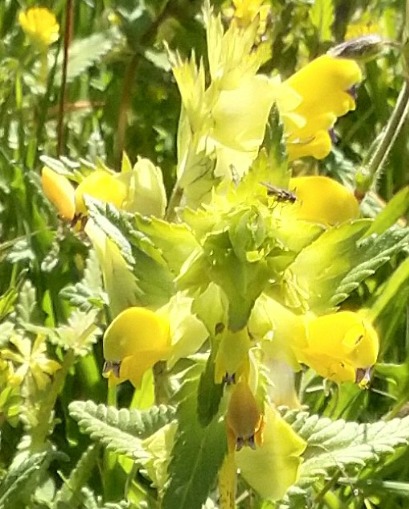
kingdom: Plantae
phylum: Tracheophyta
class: Magnoliopsida
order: Lamiales
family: Orobanchaceae
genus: Rhinanthus
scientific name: Rhinanthus
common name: Stor skjaller
